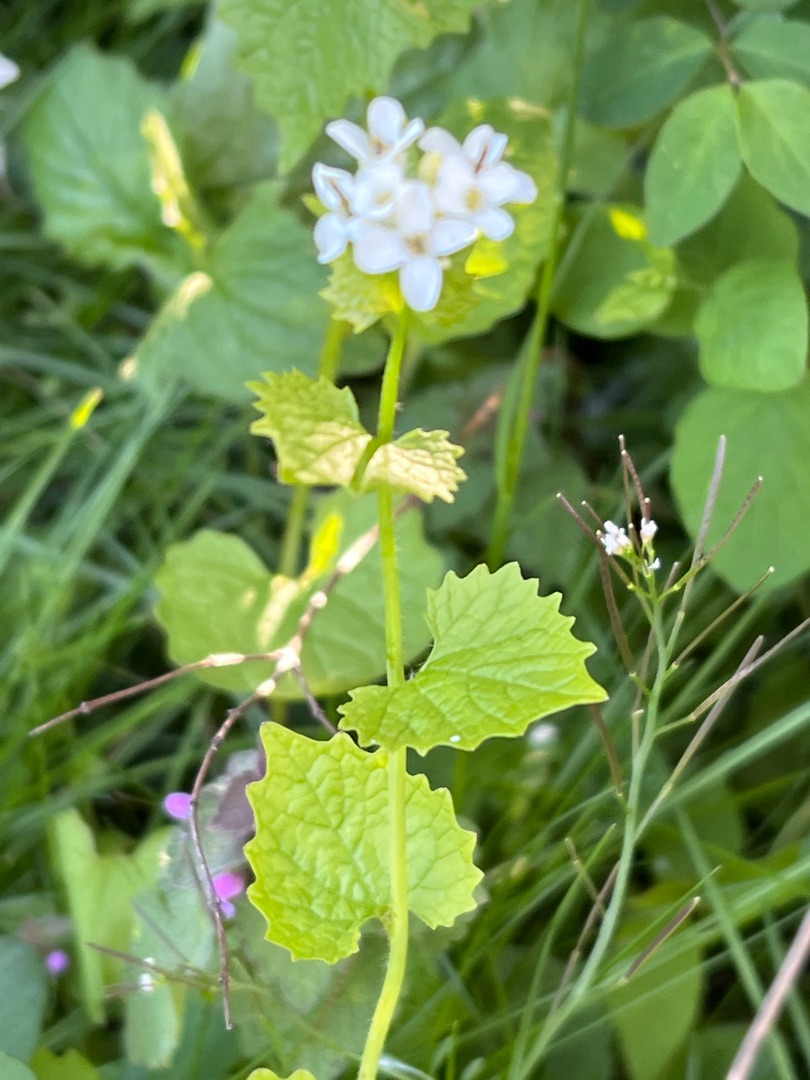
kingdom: Plantae
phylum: Tracheophyta
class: Magnoliopsida
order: Brassicales
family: Brassicaceae
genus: Alliaria
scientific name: Alliaria petiolata
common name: Løgkarse
